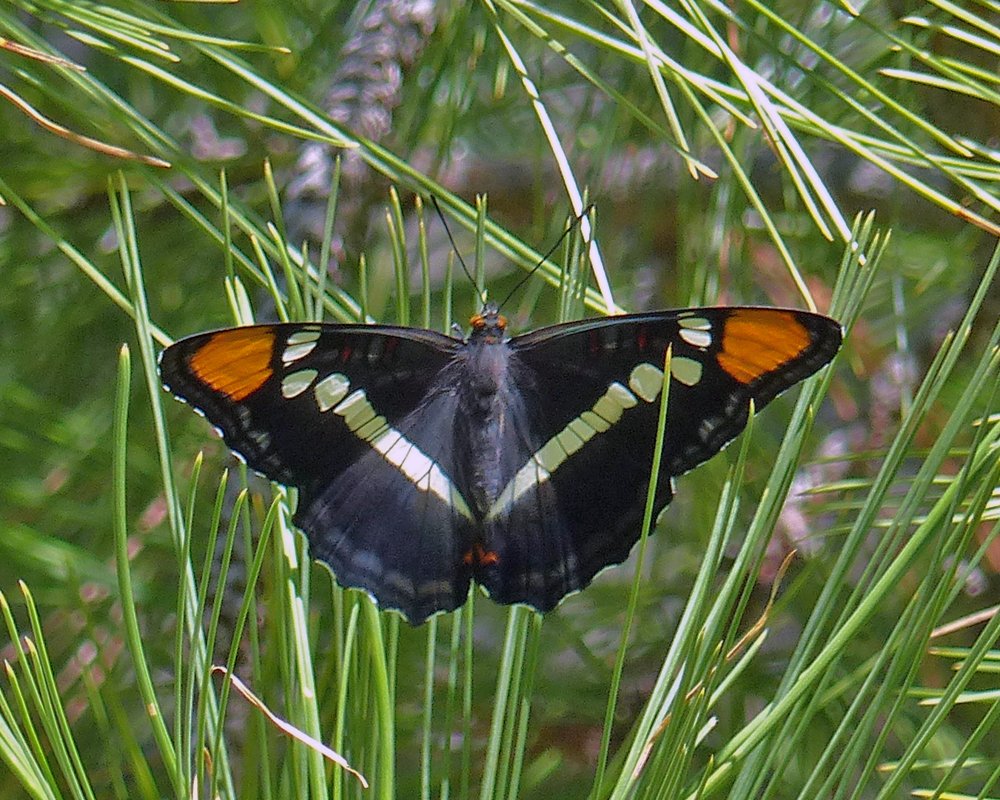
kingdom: Animalia
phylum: Arthropoda
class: Insecta
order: Lepidoptera
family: Nymphalidae
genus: Limenitis
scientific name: Limenitis bredowii
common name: Arizona Sister
